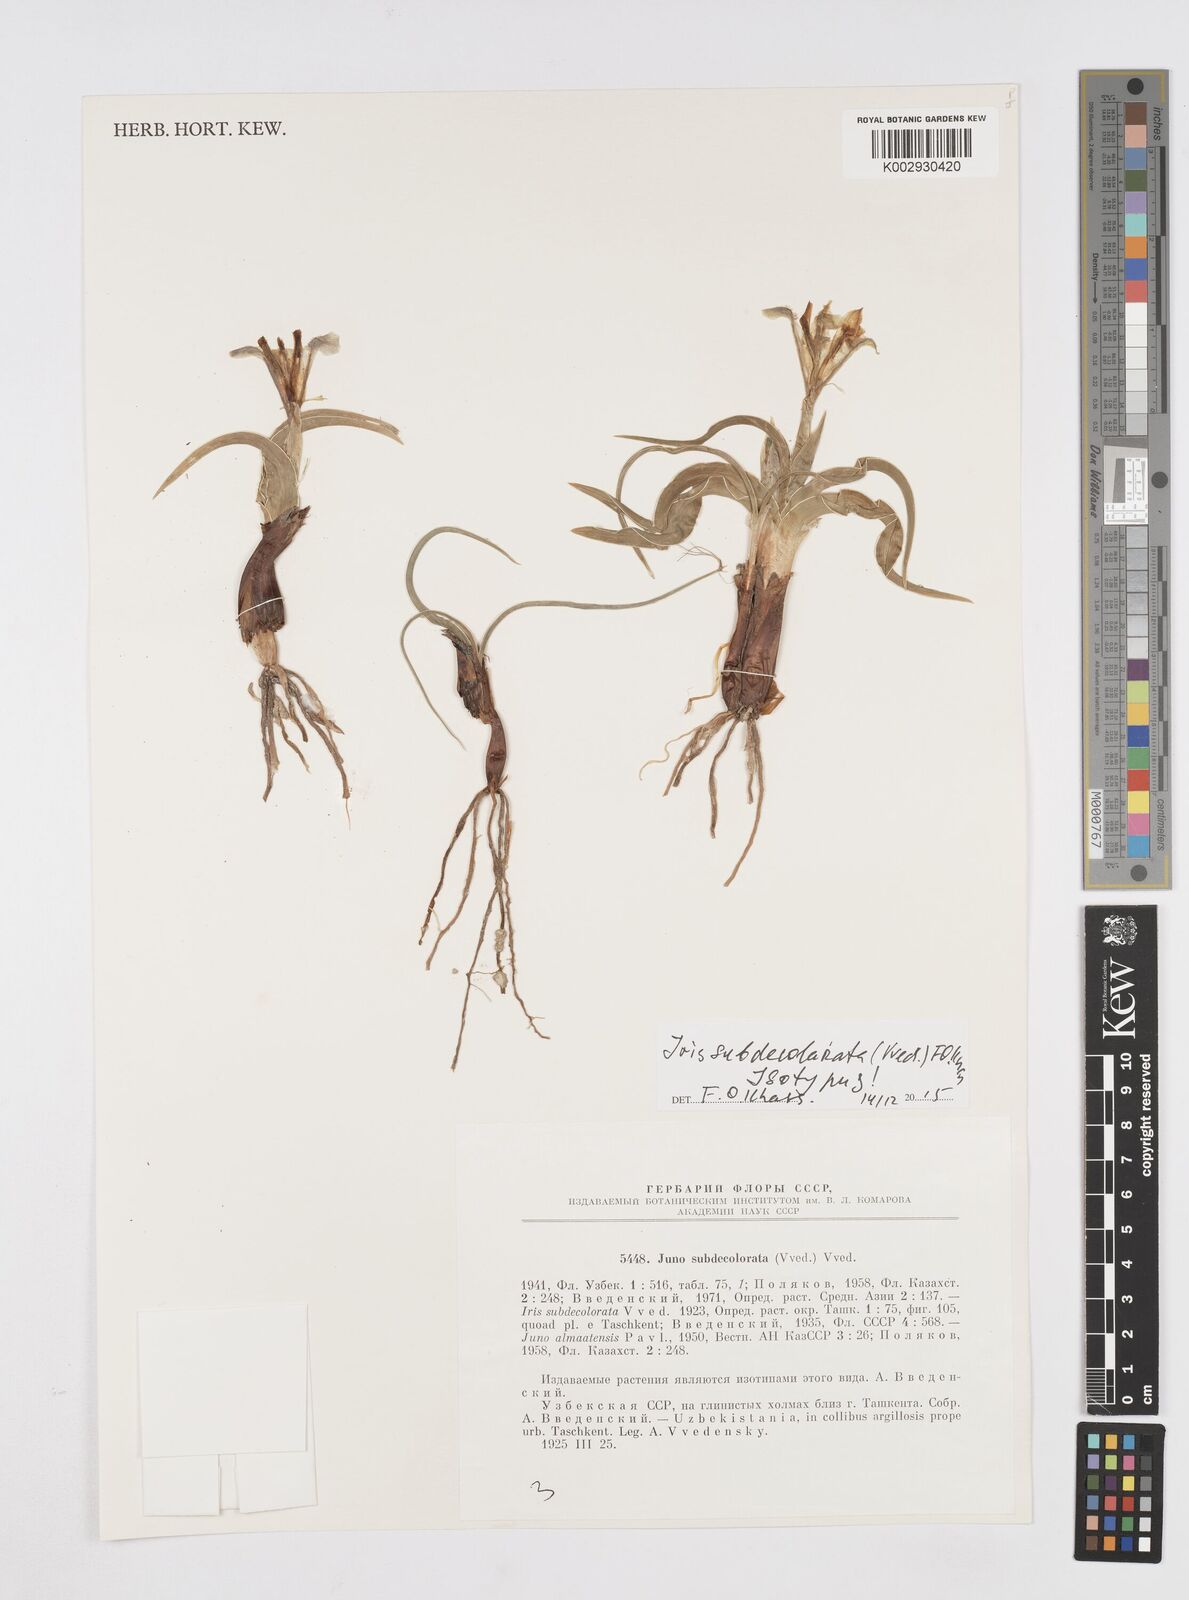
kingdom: Plantae
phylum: Tracheophyta
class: Liliopsida
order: Asparagales
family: Iridaceae
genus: Iris
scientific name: Iris subdecolorata
